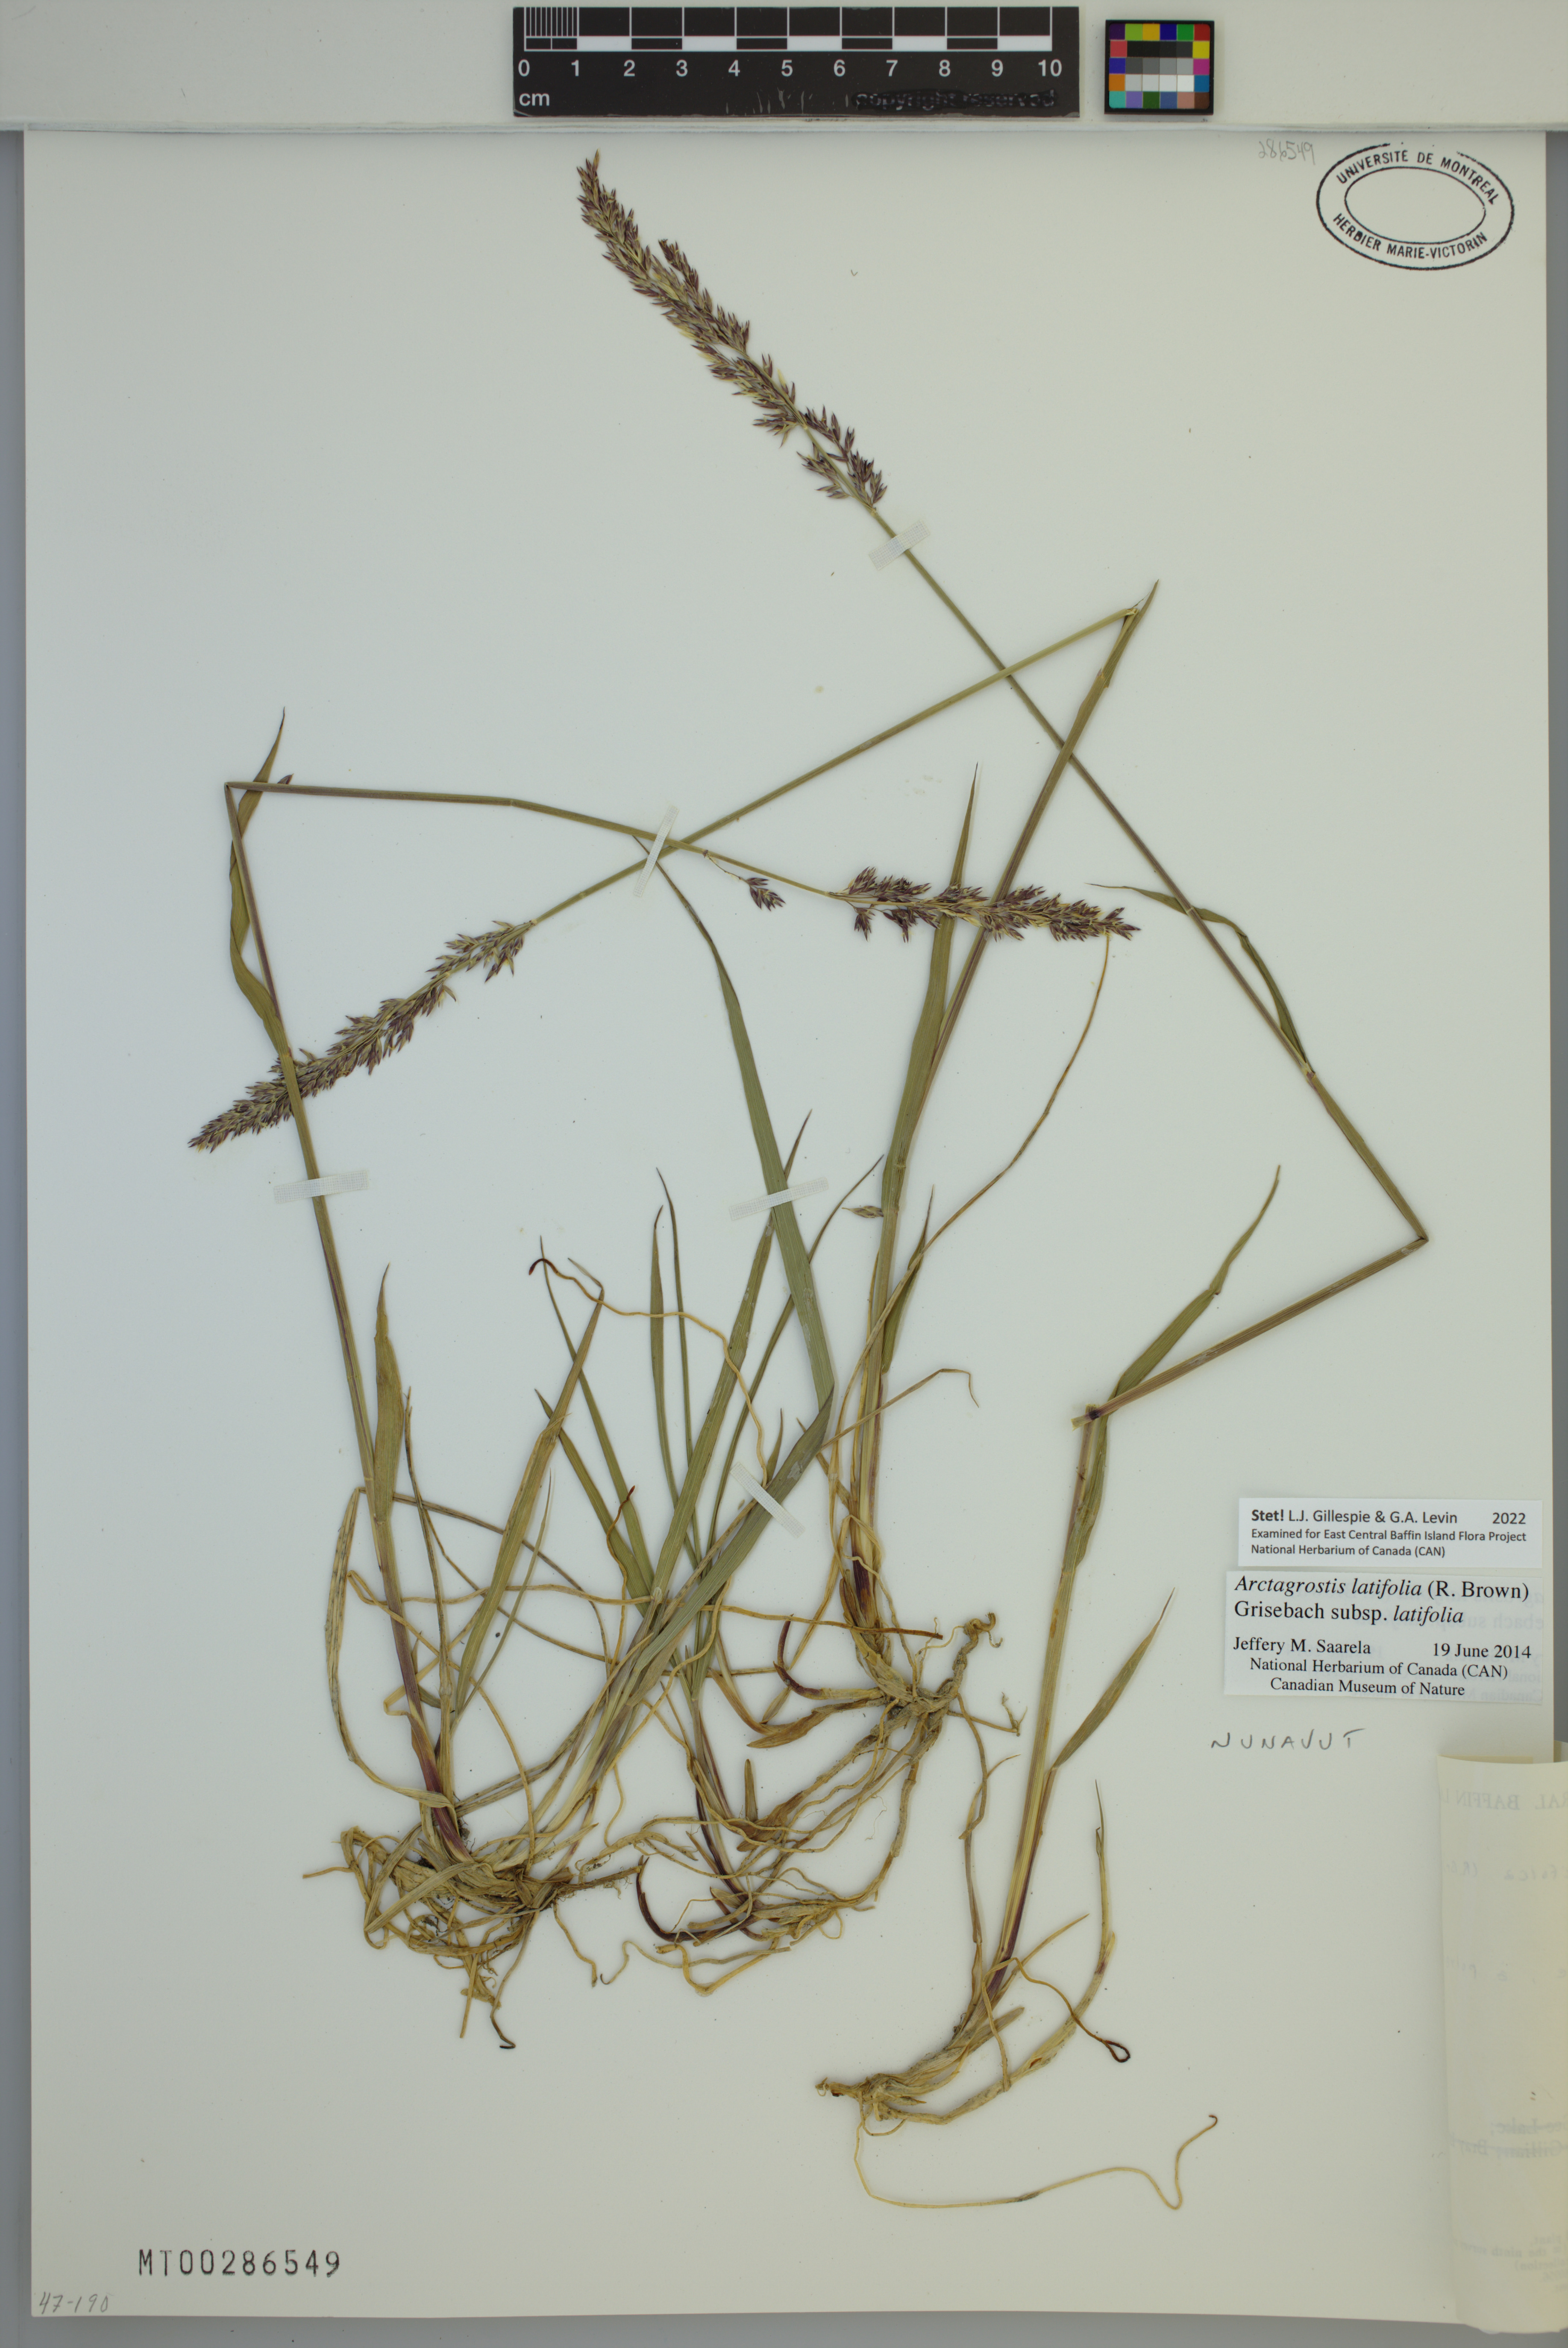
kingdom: Plantae
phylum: Tracheophyta
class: Liliopsida
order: Poales
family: Poaceae
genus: Arctagrostis
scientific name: Arctagrostis latifolia
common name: Arctic grass
